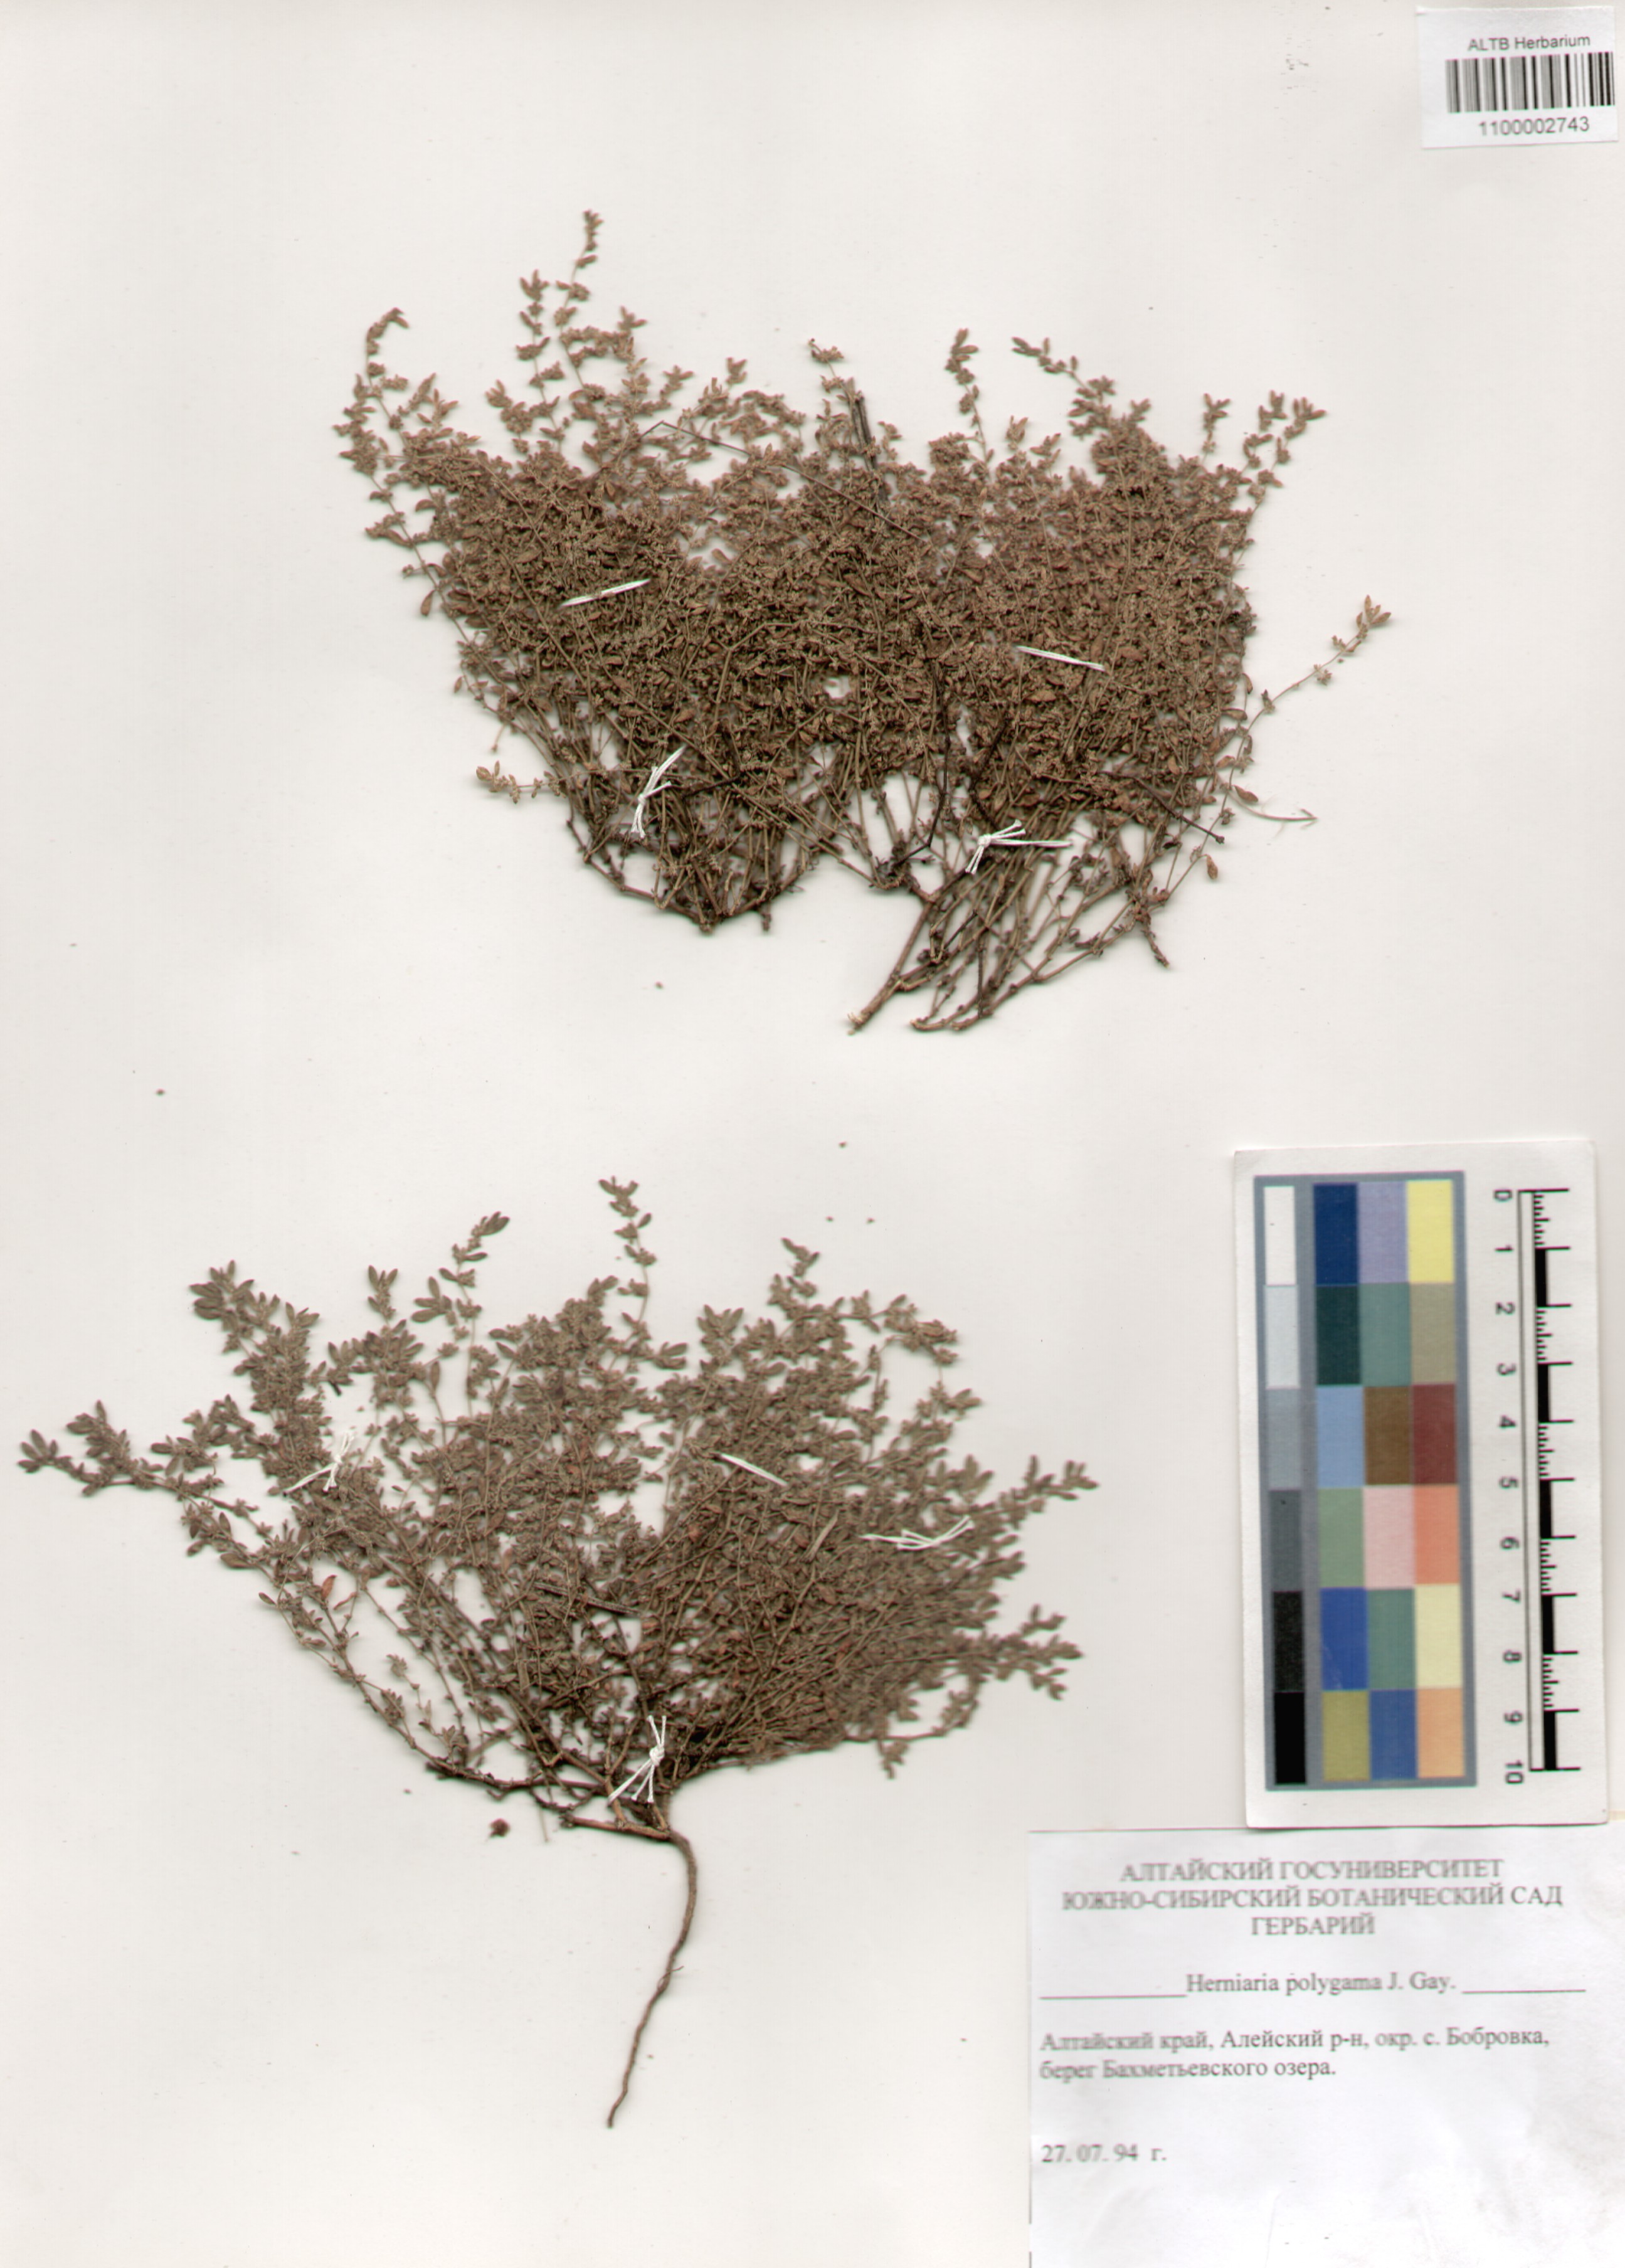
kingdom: Plantae
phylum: Tracheophyta
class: Magnoliopsida
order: Caryophyllales
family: Caryophyllaceae
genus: Herniaria
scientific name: Herniaria polygama
